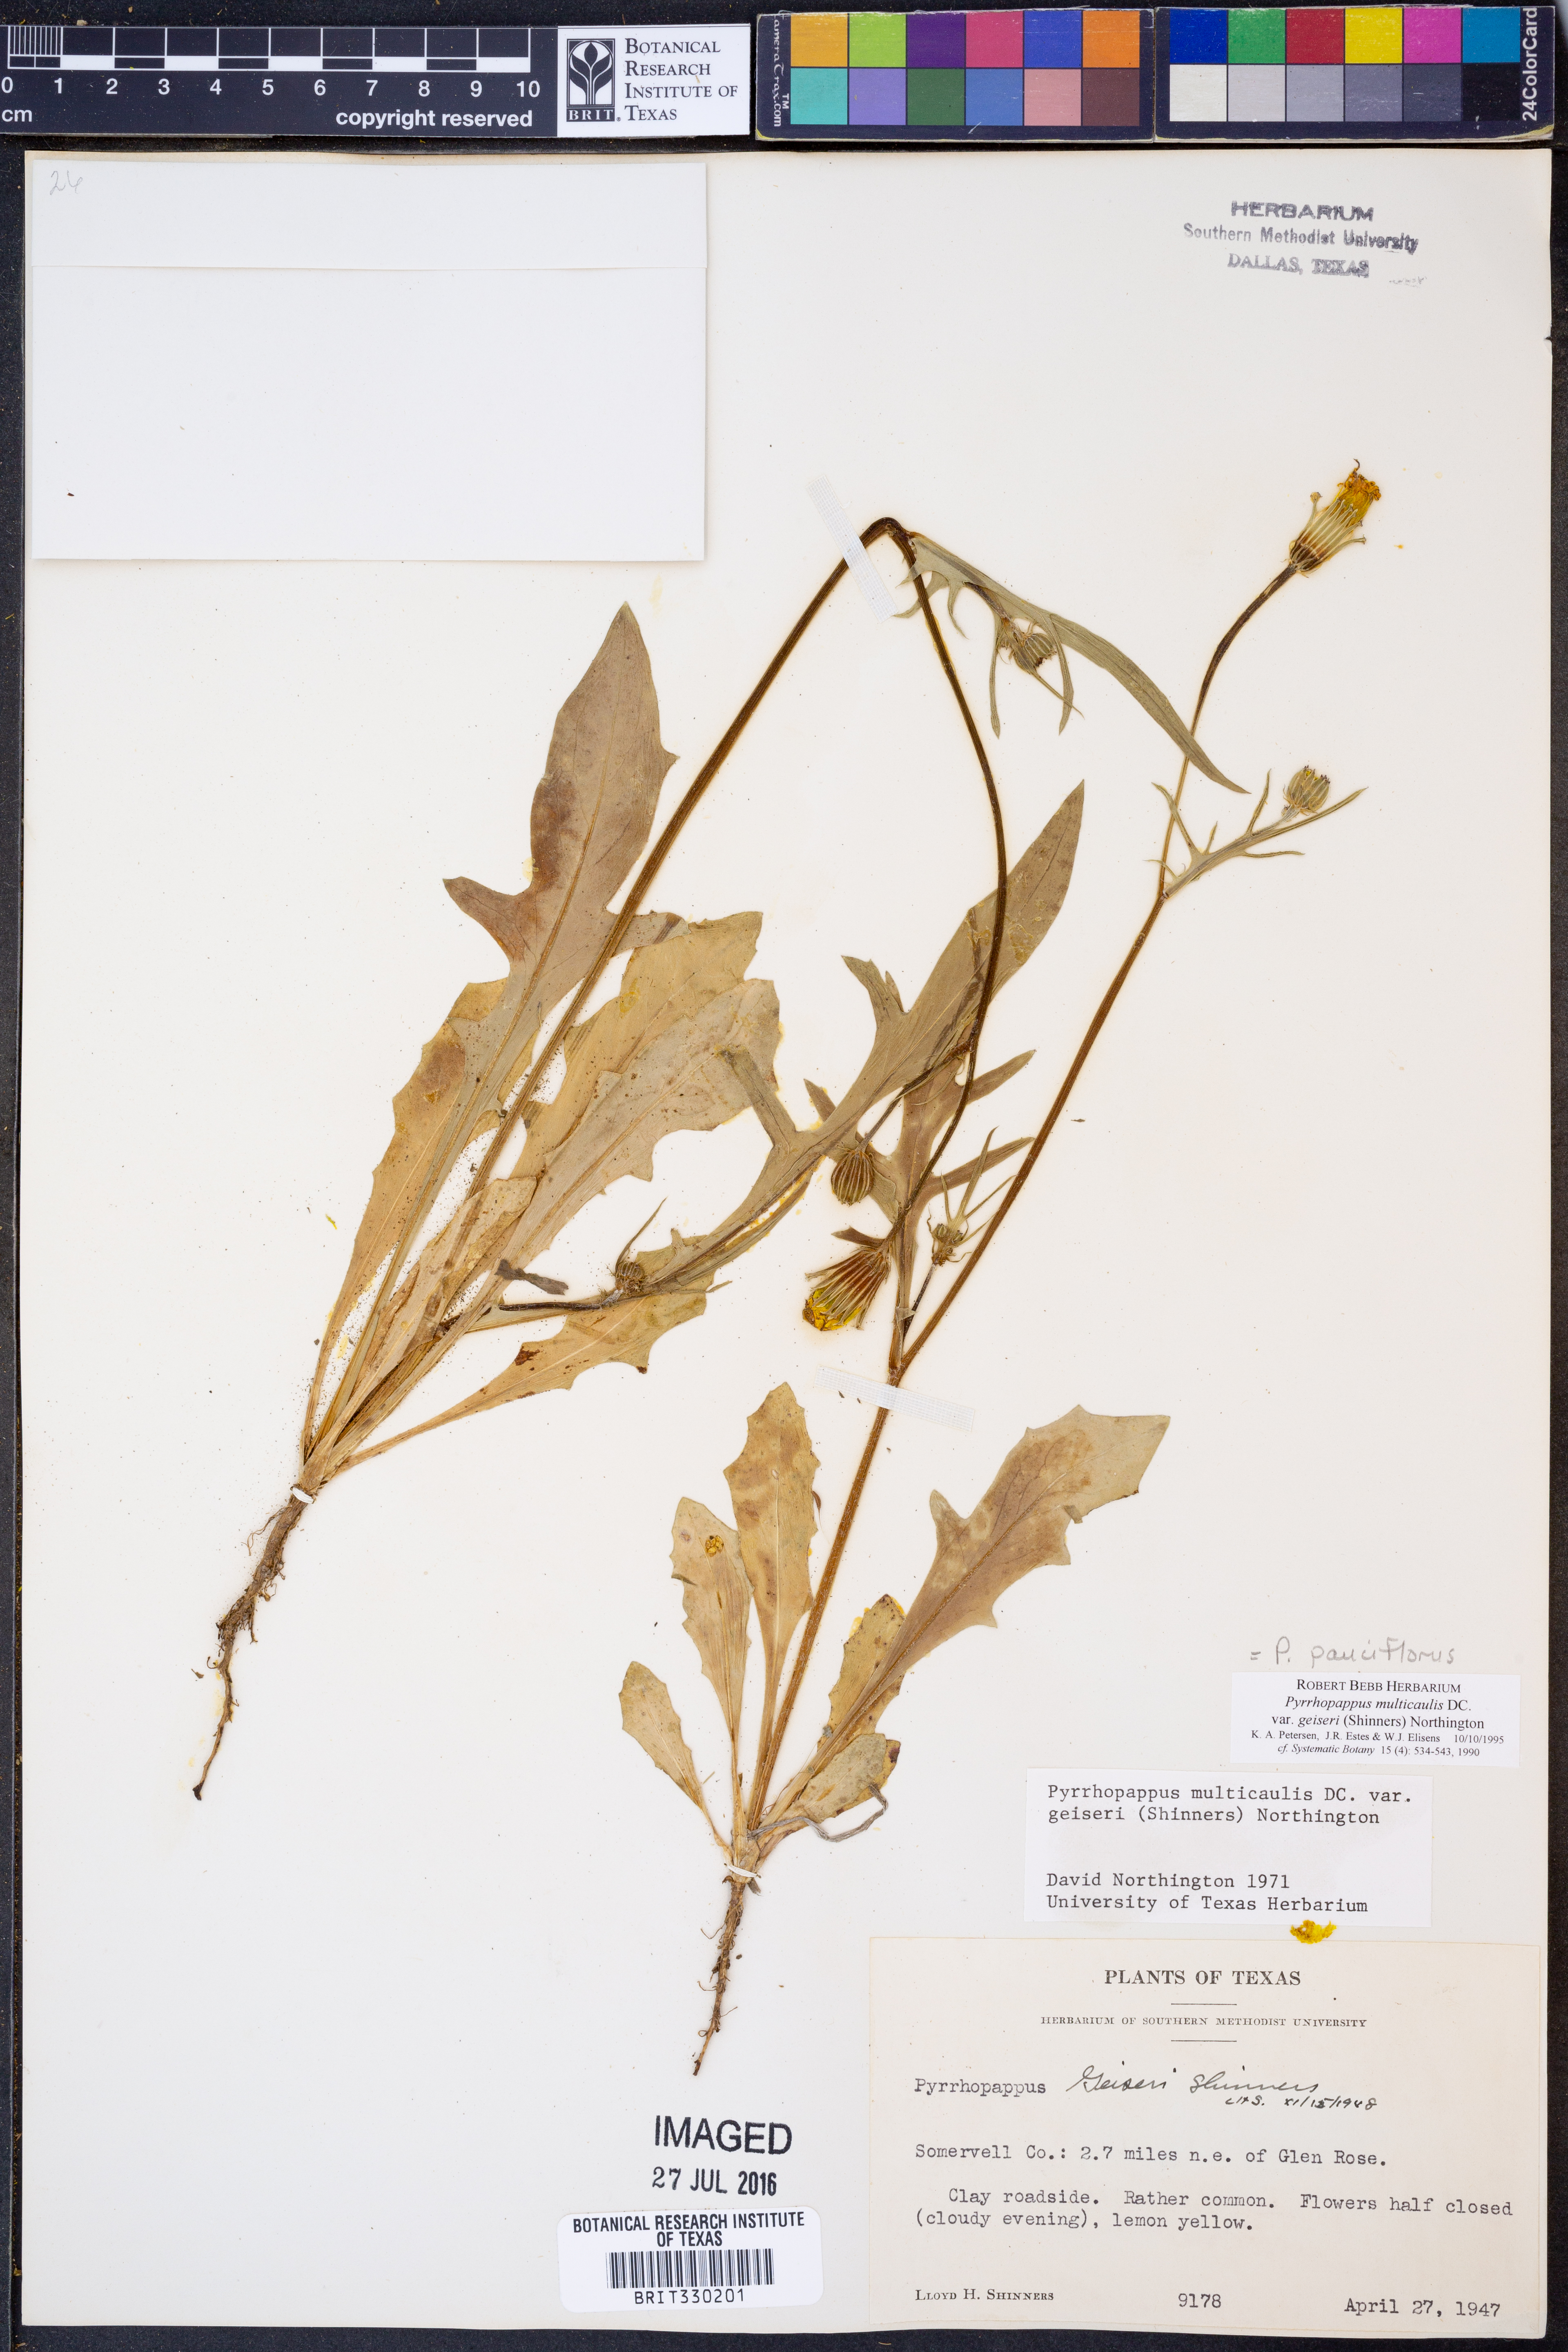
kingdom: Plantae
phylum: Tracheophyta
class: Magnoliopsida
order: Asterales
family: Asteraceae
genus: Pyrrhopappus
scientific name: Pyrrhopappus pauciflorus
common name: Texas false dandelion
